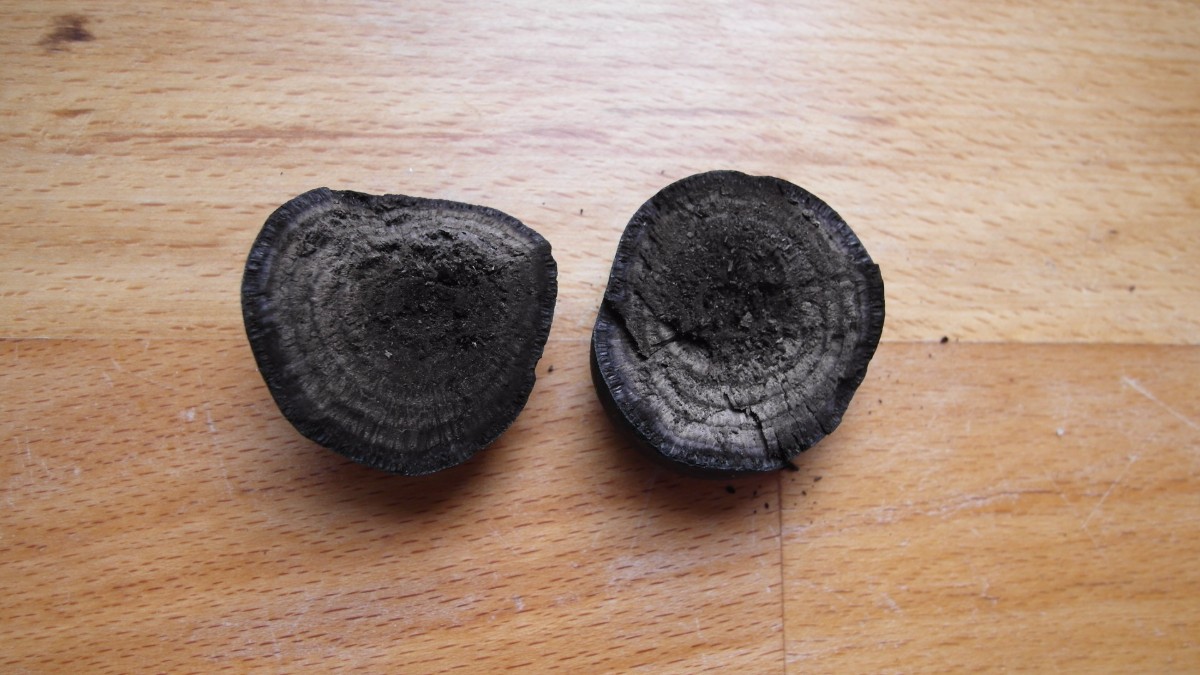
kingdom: Fungi
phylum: Ascomycota
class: Sordariomycetes
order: Xylariales
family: Hypoxylaceae
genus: Daldinia
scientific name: Daldinia concentrica
